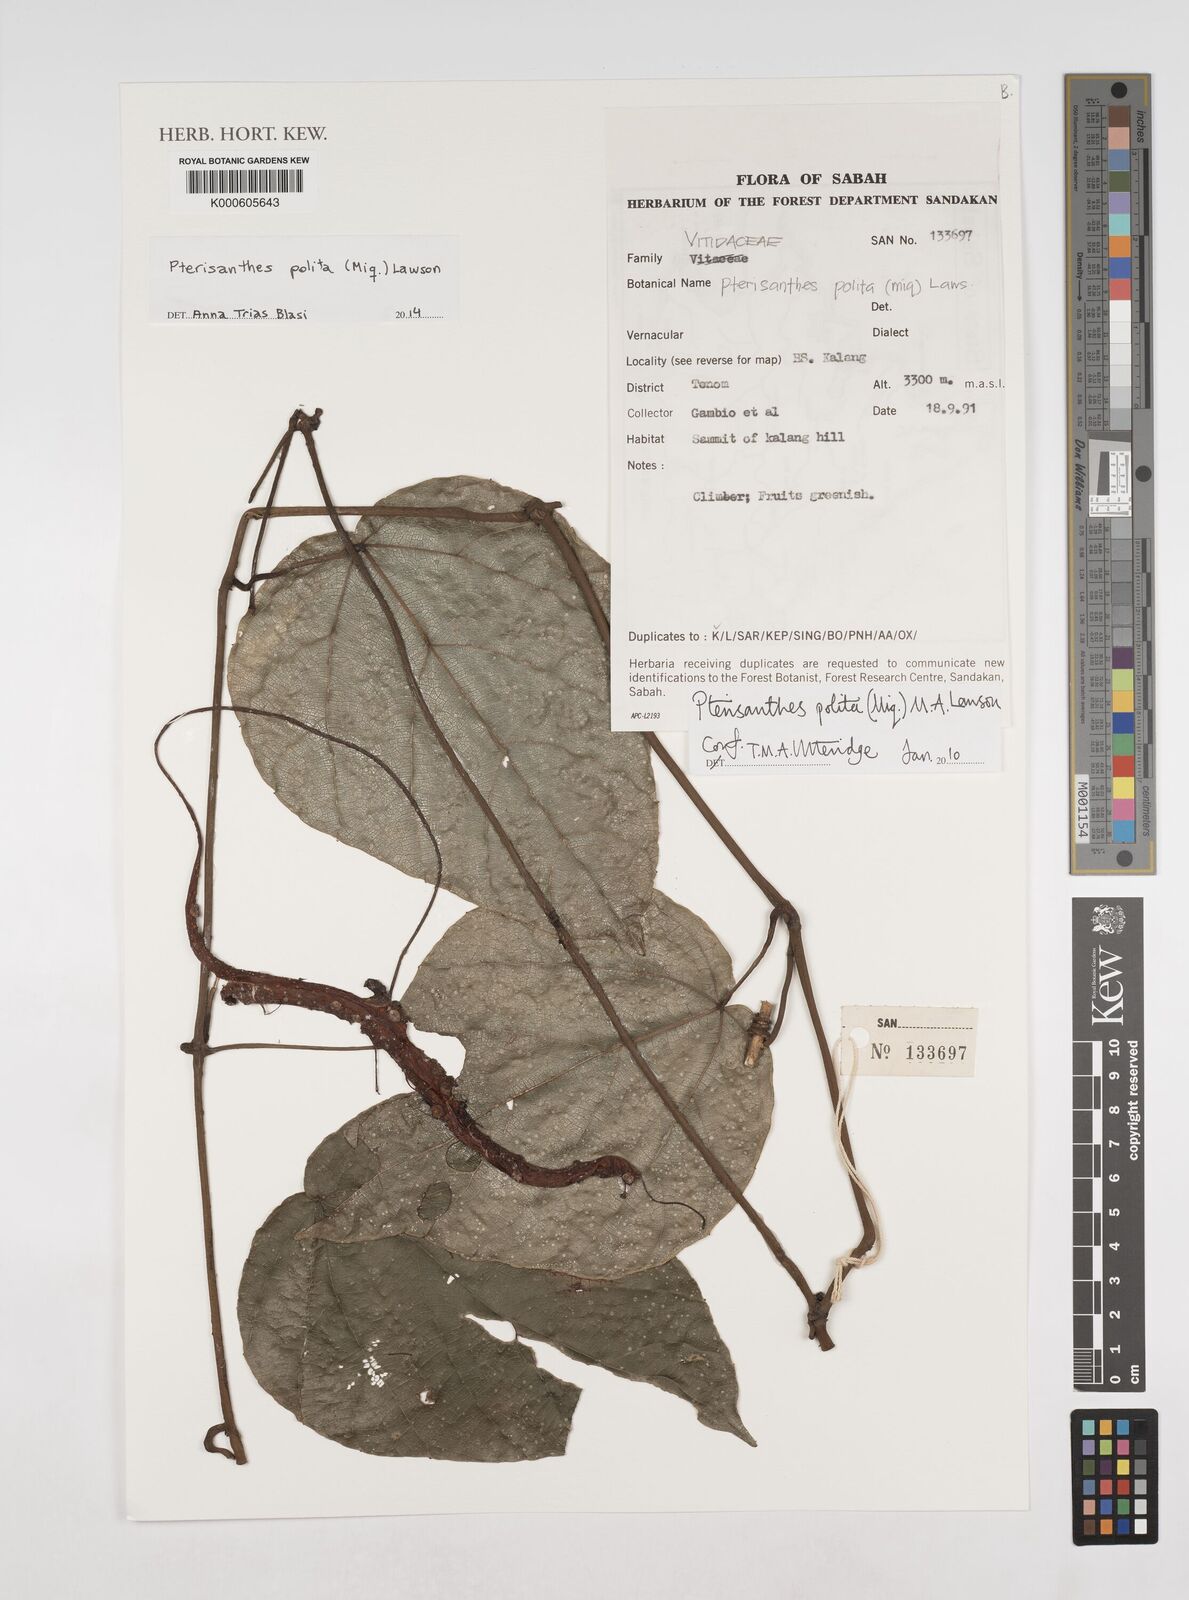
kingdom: Plantae
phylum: Tracheophyta
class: Magnoliopsida
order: Vitales
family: Vitaceae
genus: Ampelocissus
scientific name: Ampelocissus polita
